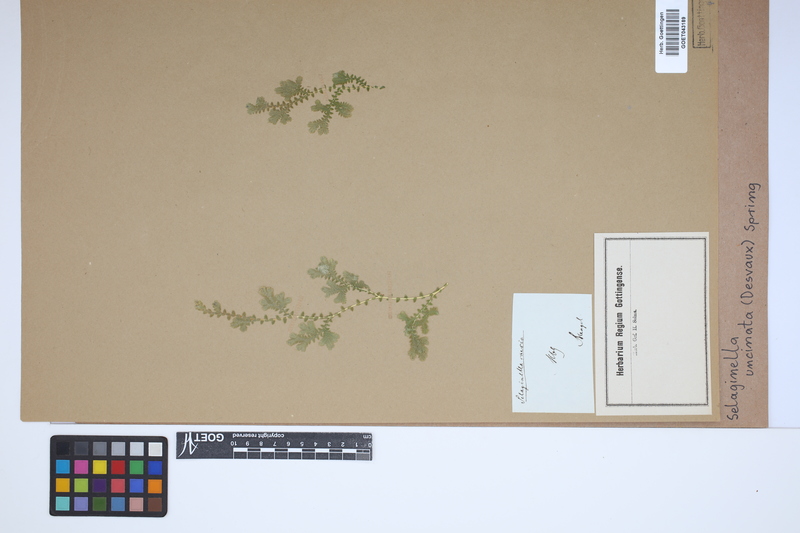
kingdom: Plantae
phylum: Tracheophyta
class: Lycopodiopsida
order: Selaginellales
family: Selaginellaceae
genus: Selaginella
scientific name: Selaginella uncinata
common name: Blue spikemoss
